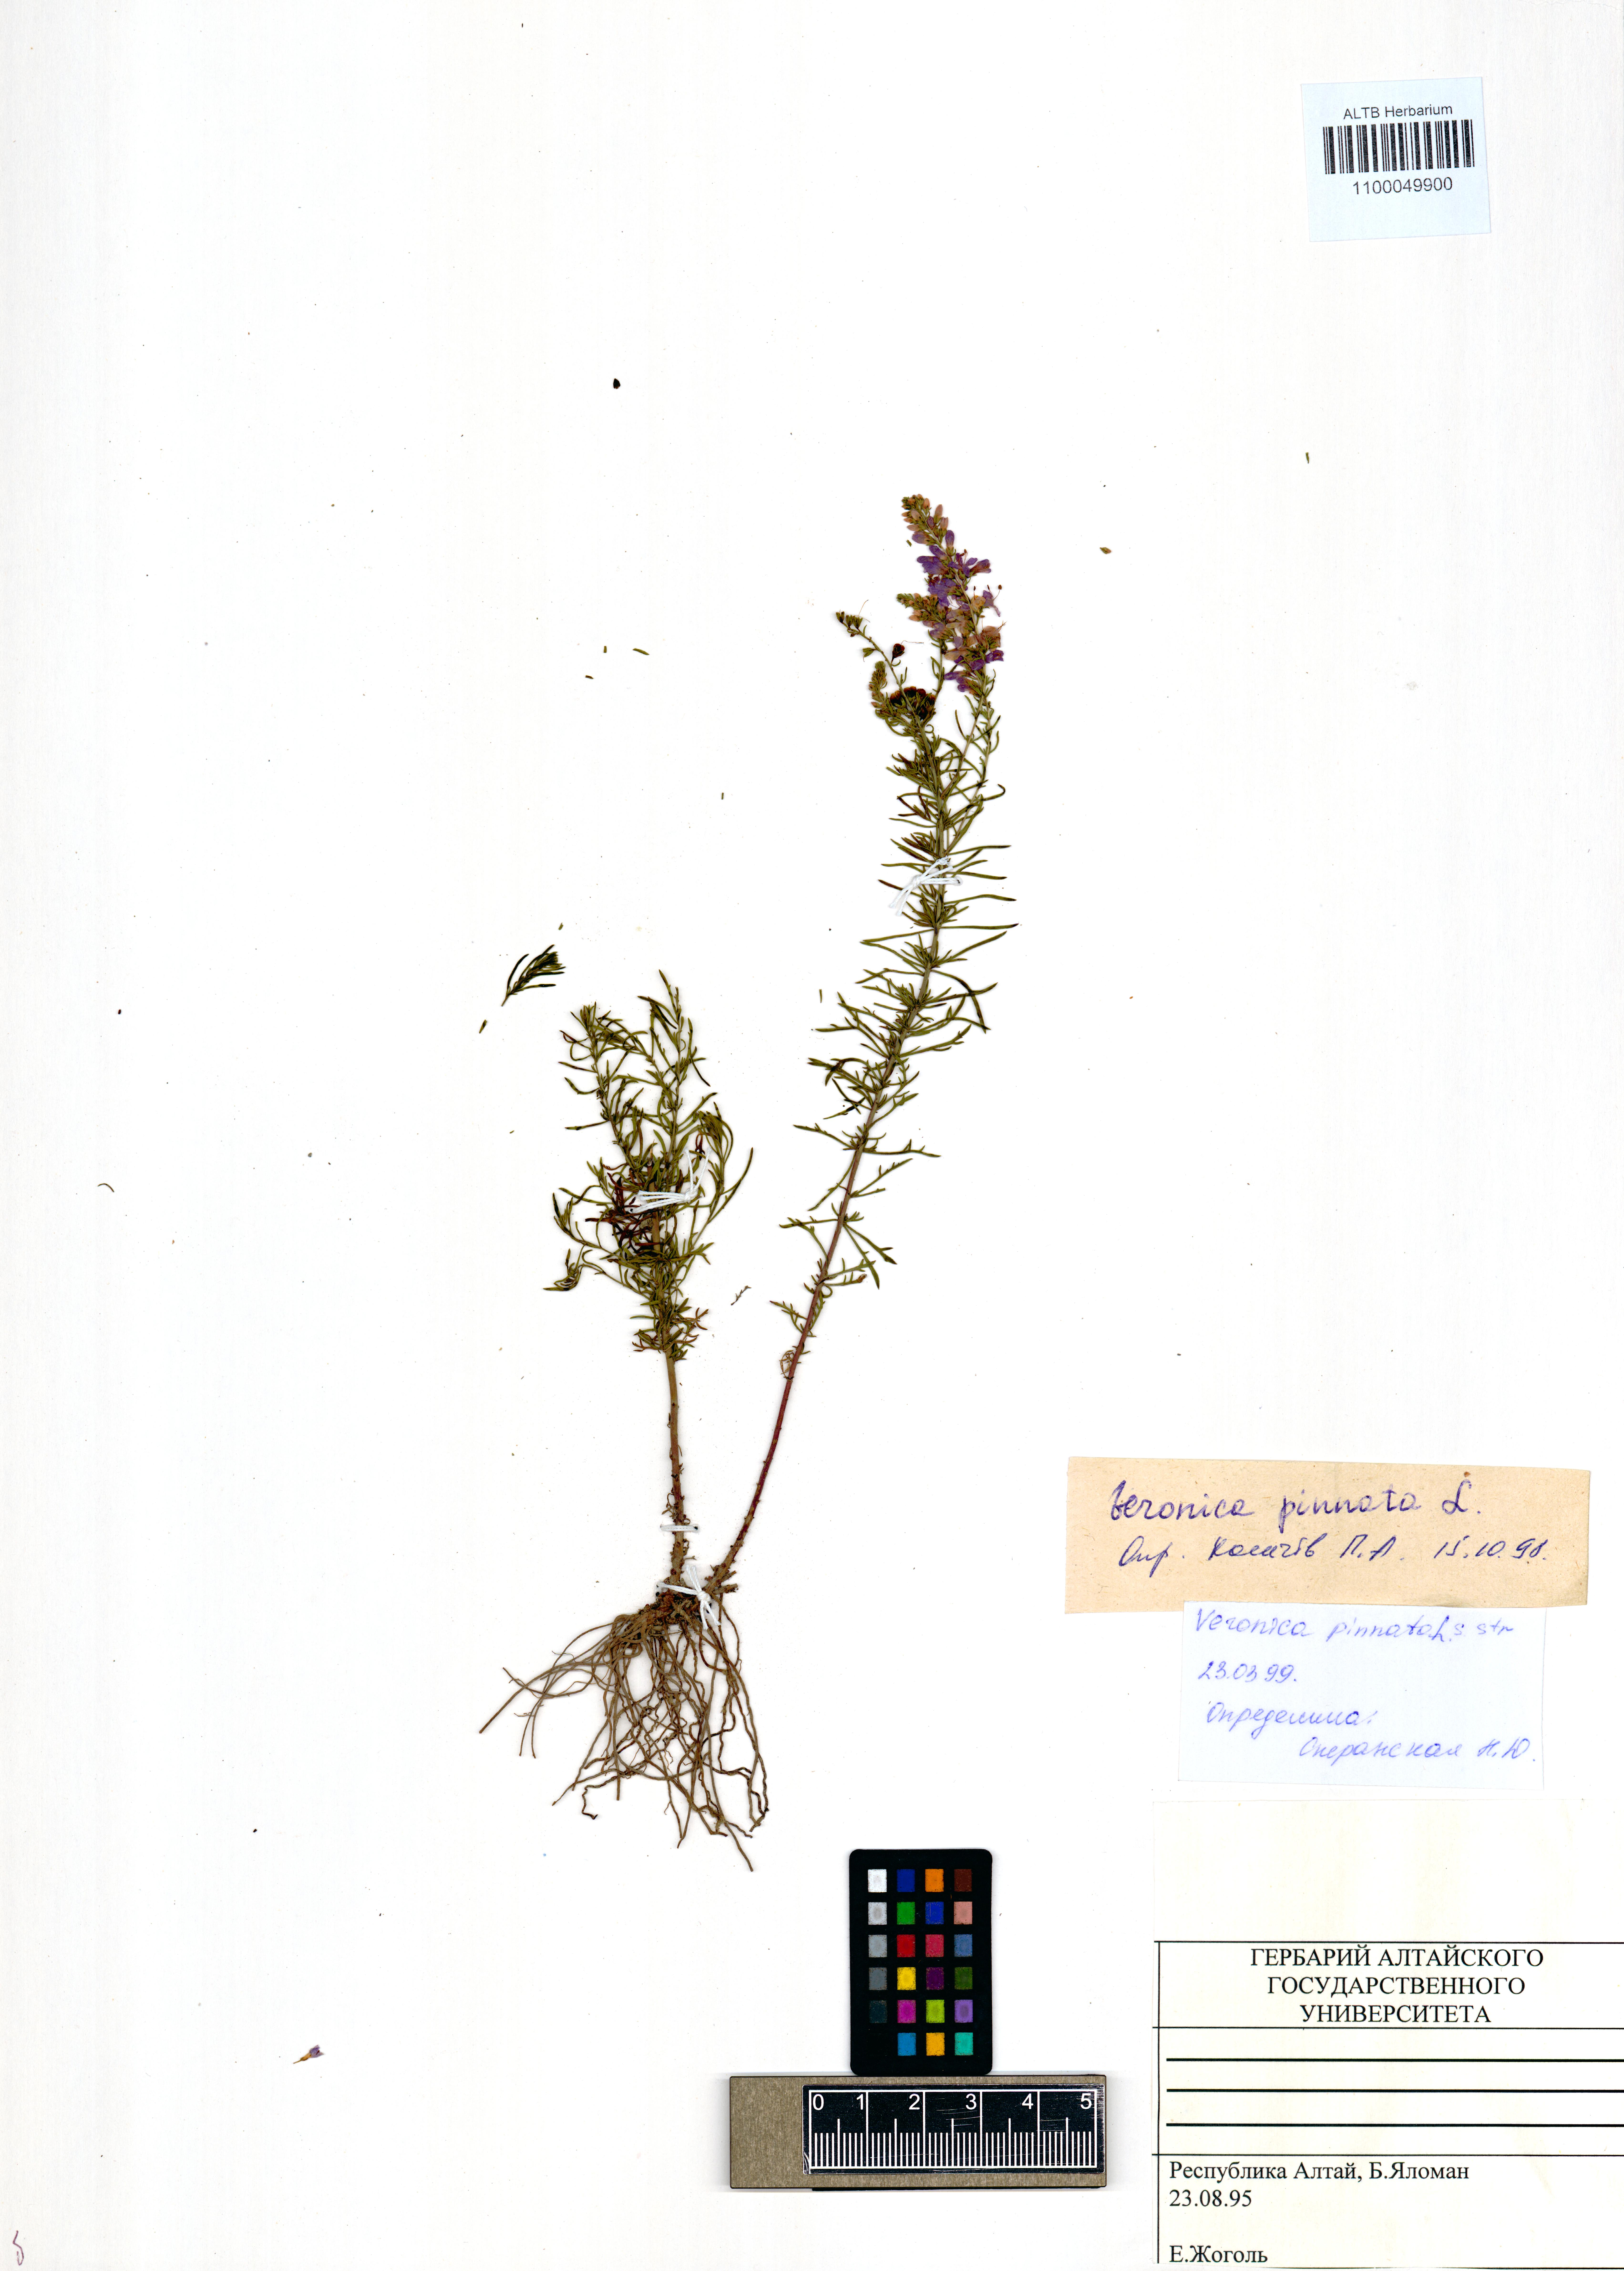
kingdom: Plantae
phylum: Tracheophyta
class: Magnoliopsida
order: Lamiales
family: Plantaginaceae
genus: Veronica
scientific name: Veronica pinnata
